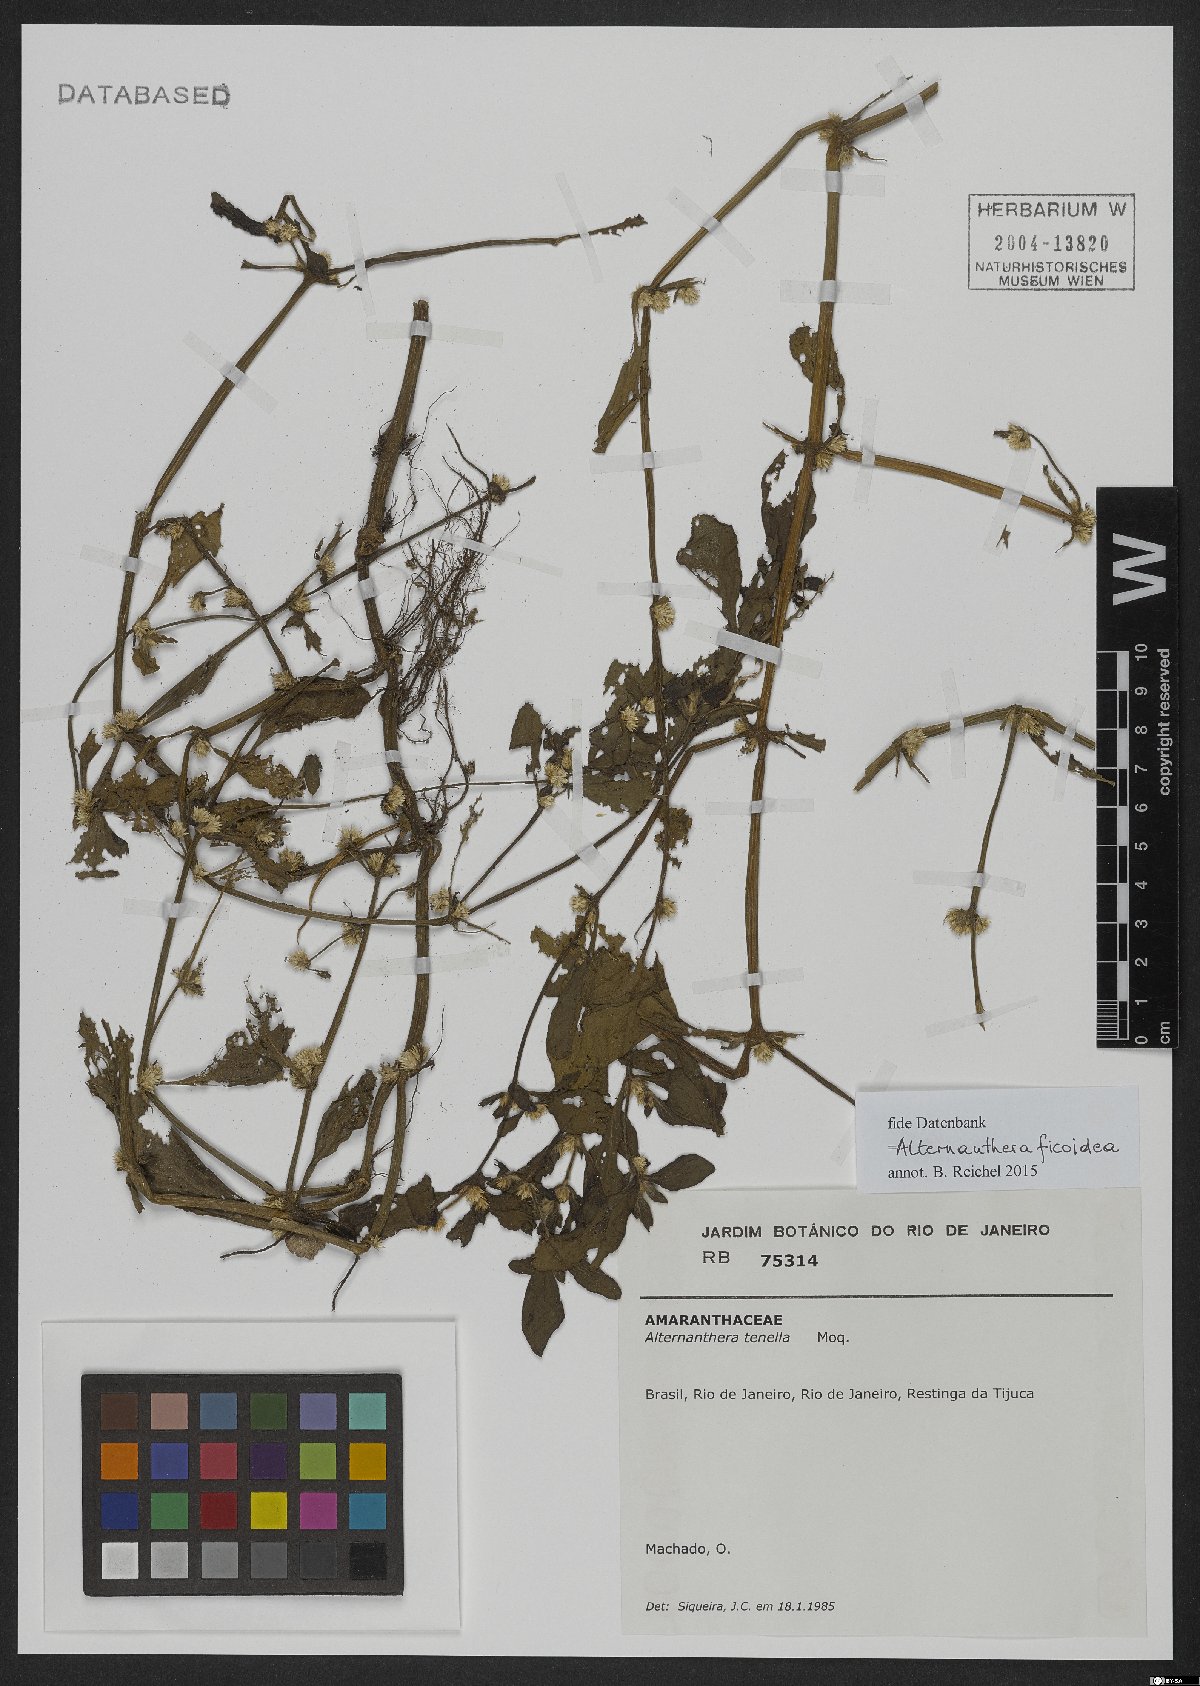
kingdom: Plantae
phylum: Tracheophyta
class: Magnoliopsida
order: Caryophyllales
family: Amaranthaceae
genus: Alternanthera
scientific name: Alternanthera ficoidea
